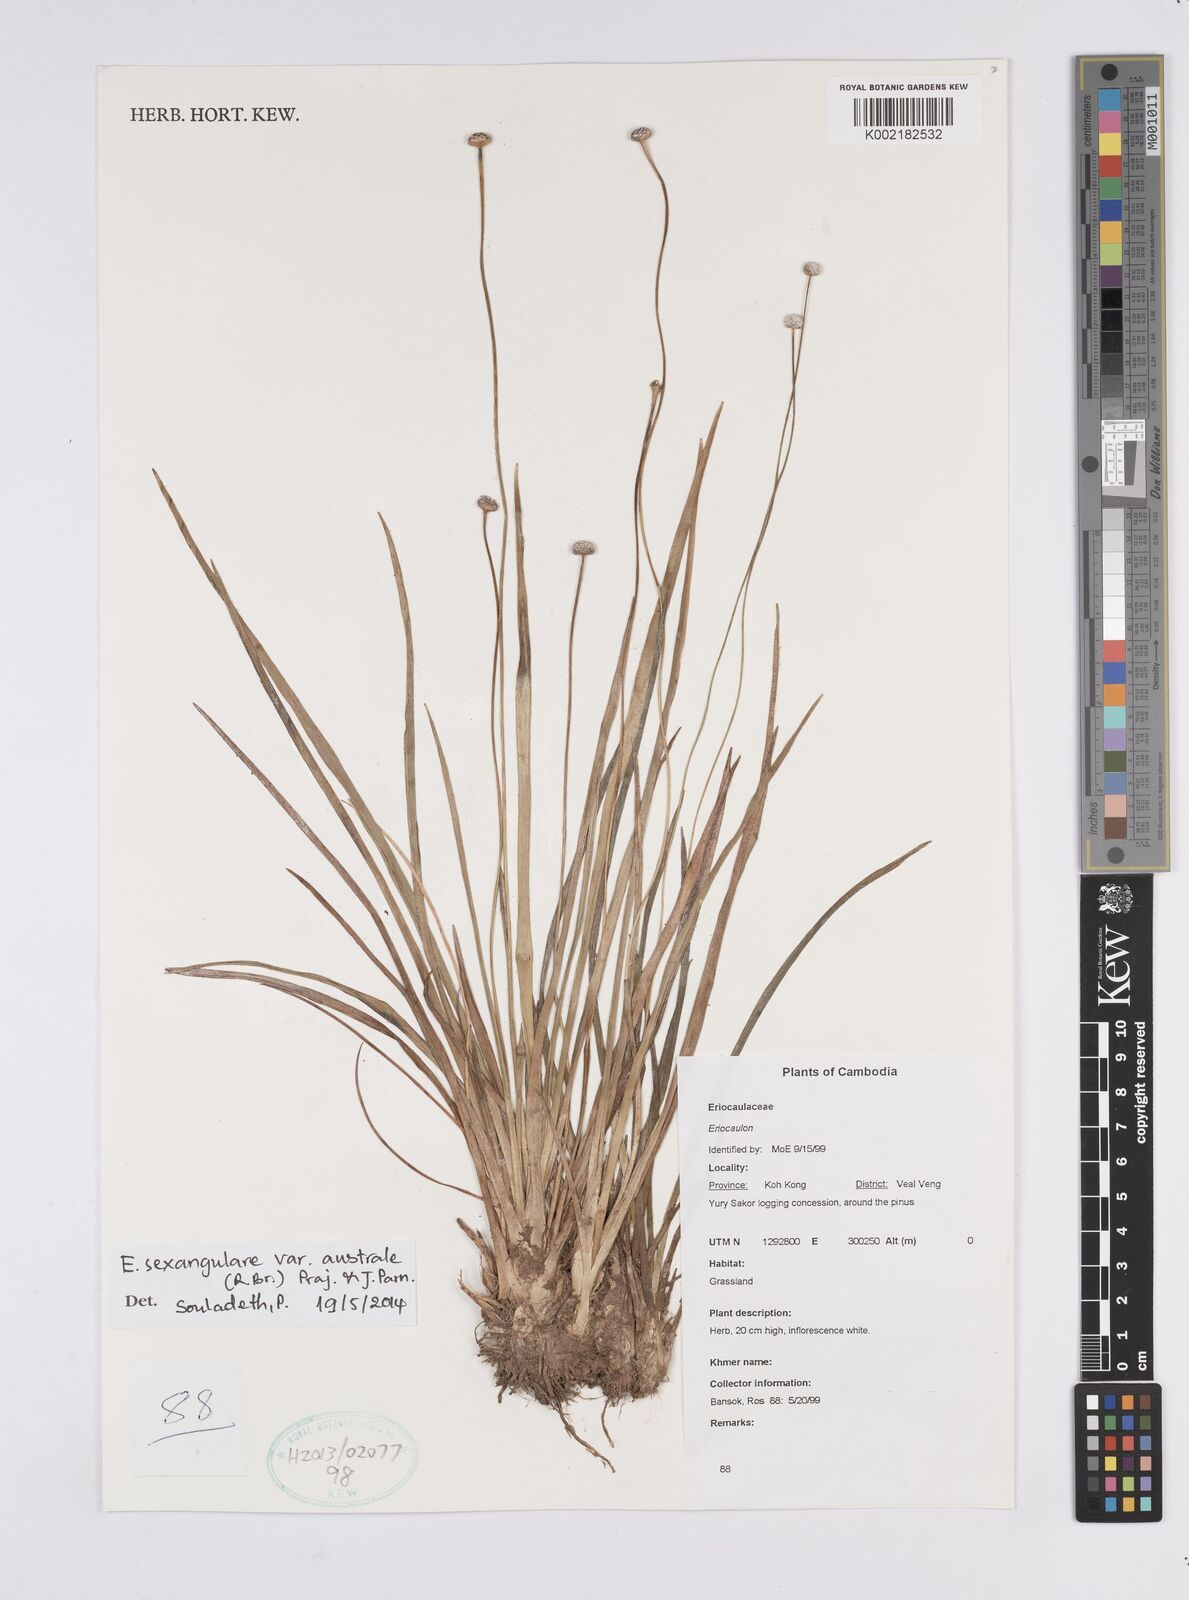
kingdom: Plantae
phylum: Tracheophyta
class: Liliopsida
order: Poales
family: Eriocaulaceae
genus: Eriocaulon
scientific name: Eriocaulon australe
